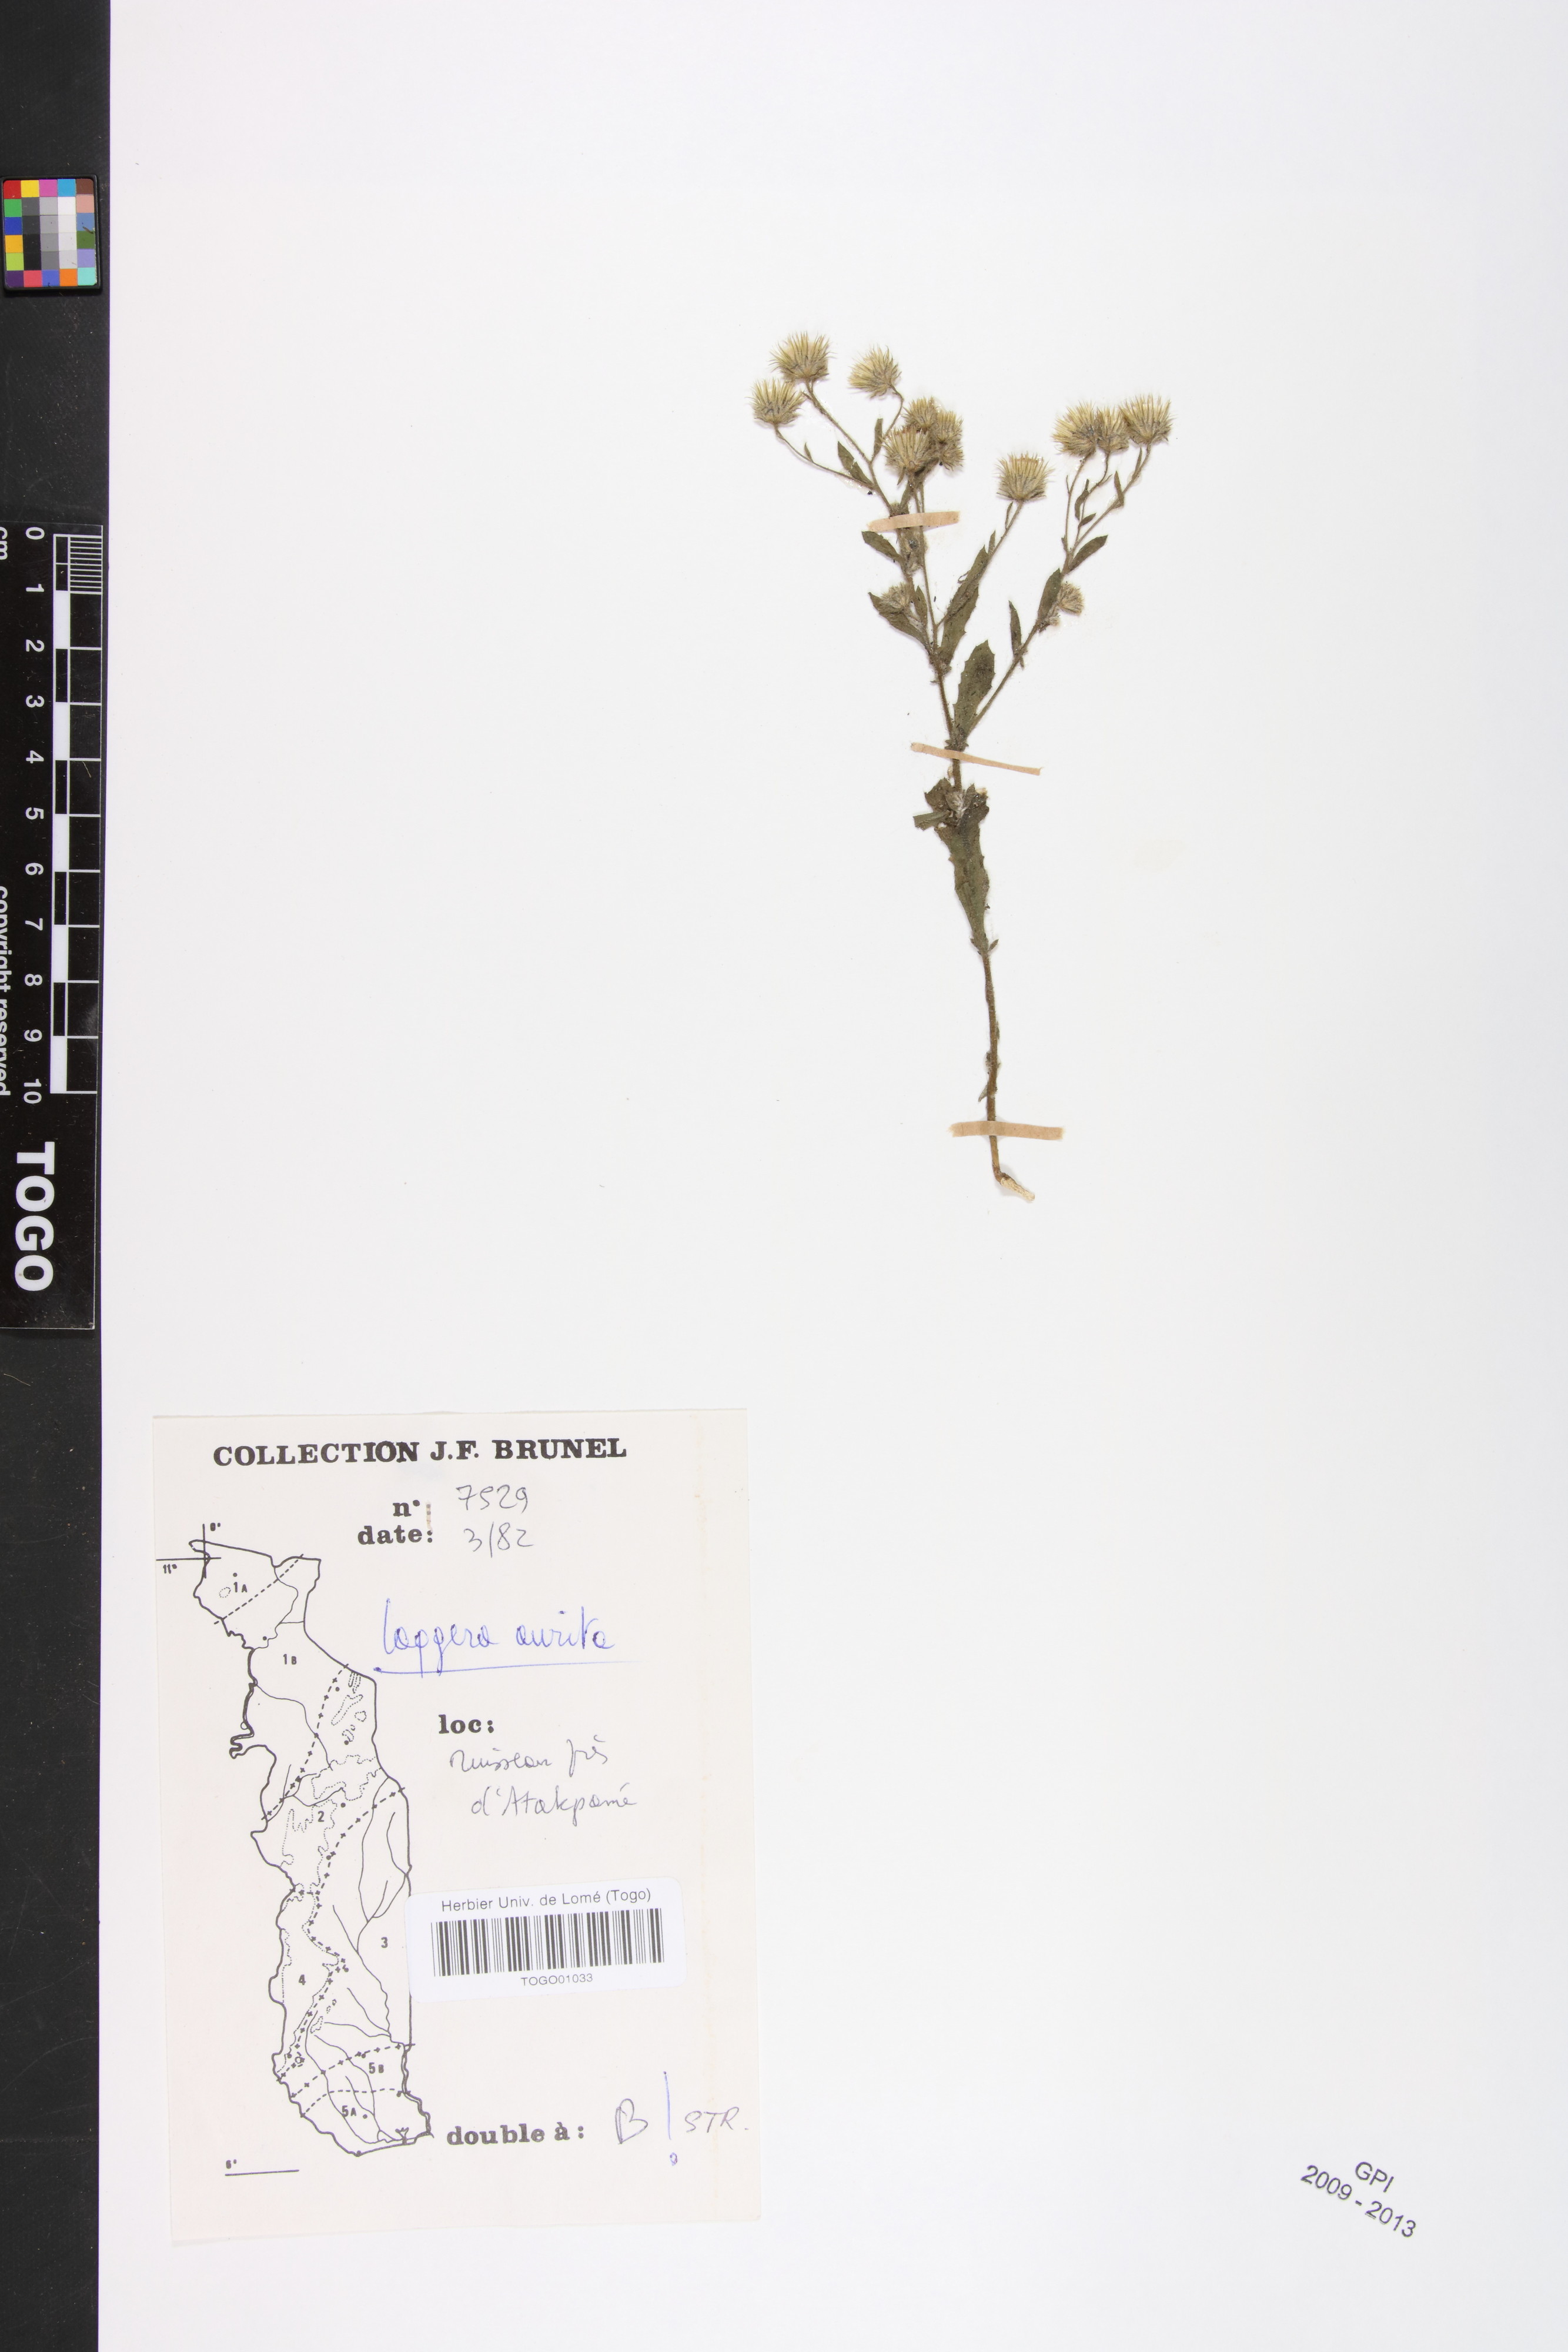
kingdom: Plantae
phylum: Tracheophyta
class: Magnoliopsida
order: Asterales
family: Asteraceae
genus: Pseudoconyza
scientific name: Pseudoconyza viscosa
